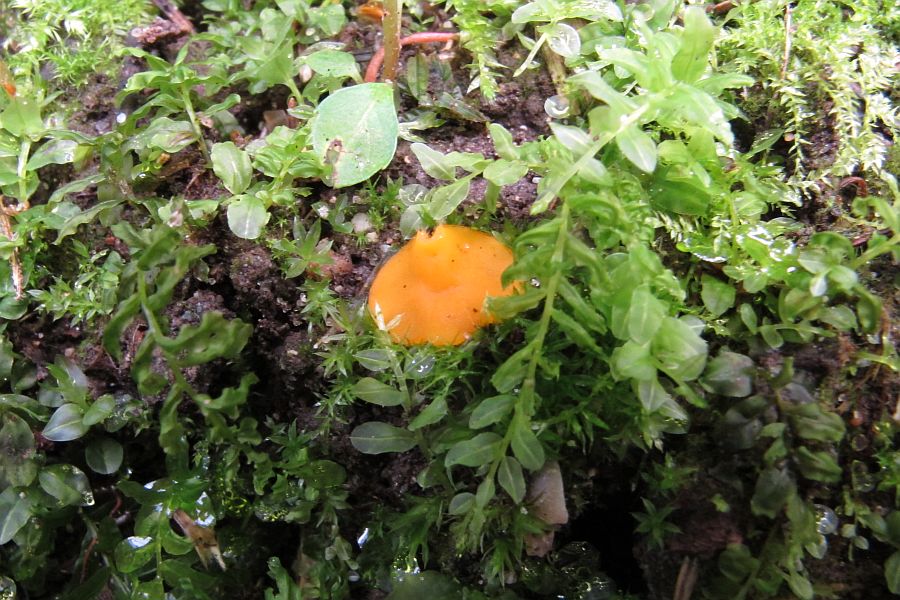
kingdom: Fungi
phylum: Ascomycota
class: Pezizomycetes
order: Pezizales
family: Pyronemataceae
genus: Cheilymenia
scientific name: Cheilymenia vitellina
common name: æggegul hårbæger
